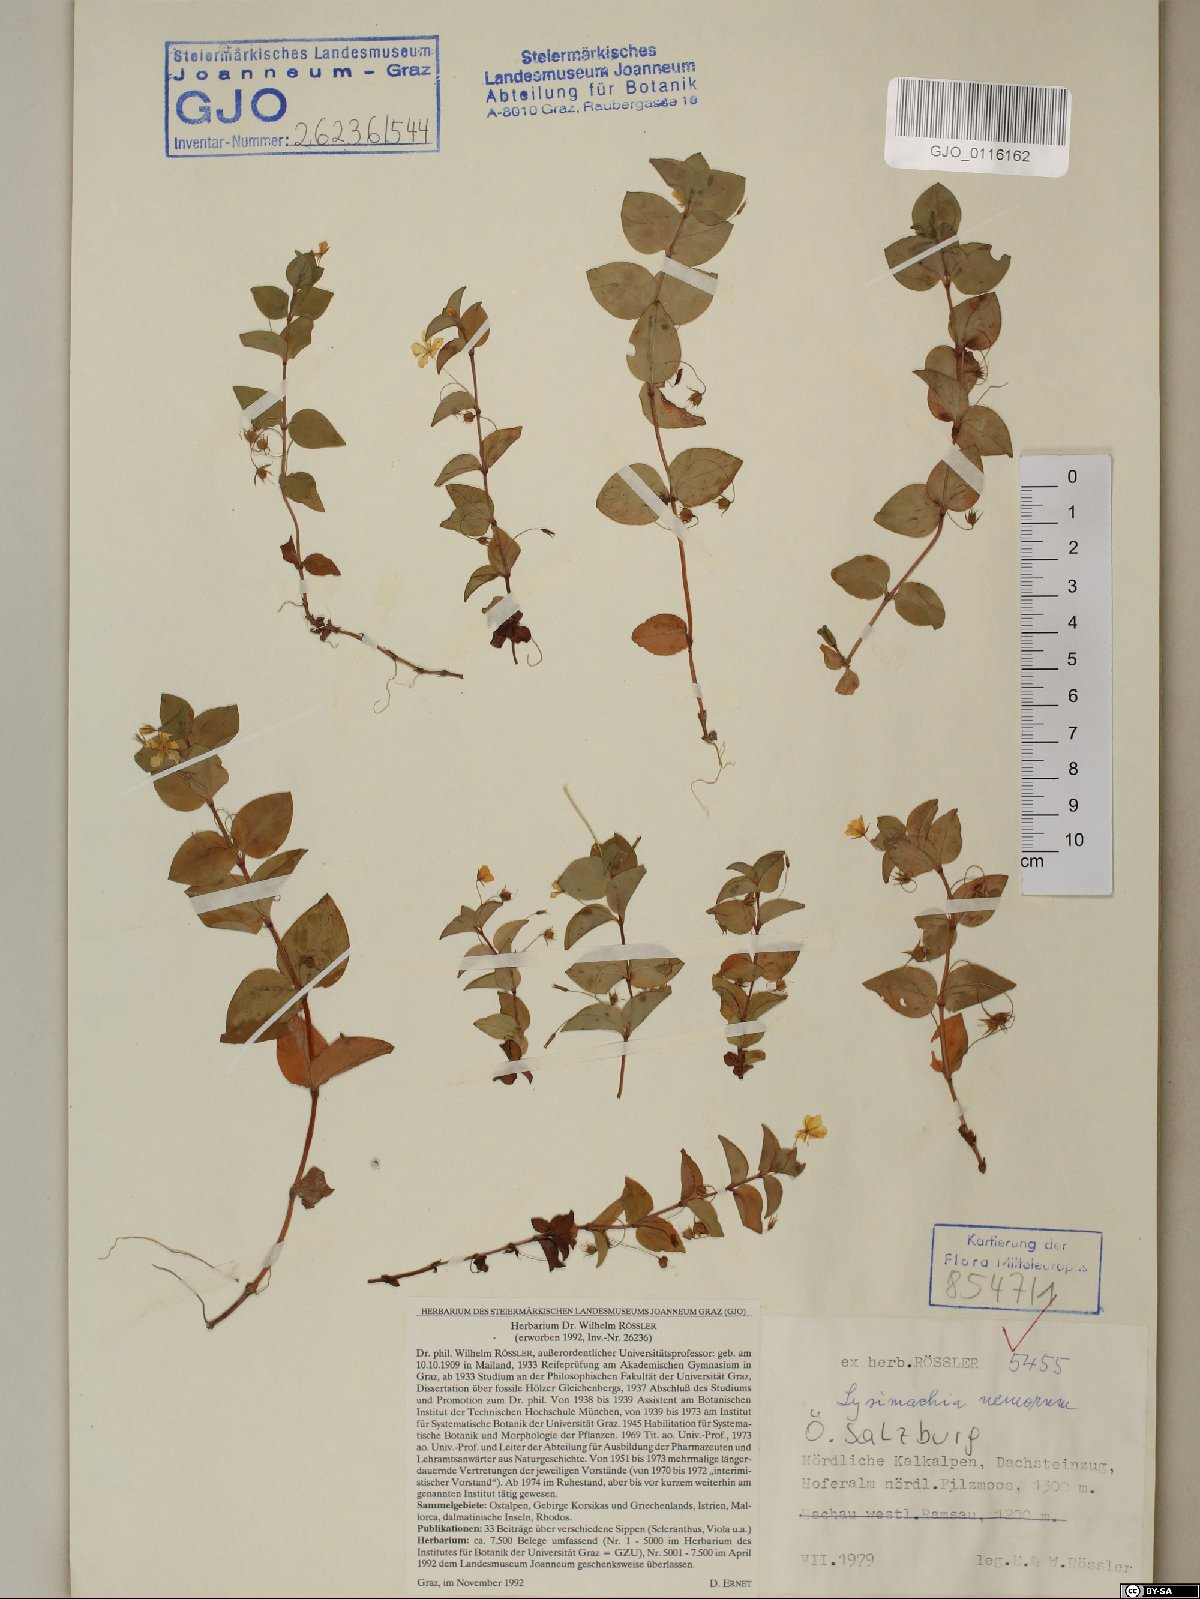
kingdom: Plantae
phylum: Tracheophyta
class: Magnoliopsida
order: Ericales
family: Primulaceae
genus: Lysimachia
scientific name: Lysimachia nemorum
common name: Yellow pimpernel
